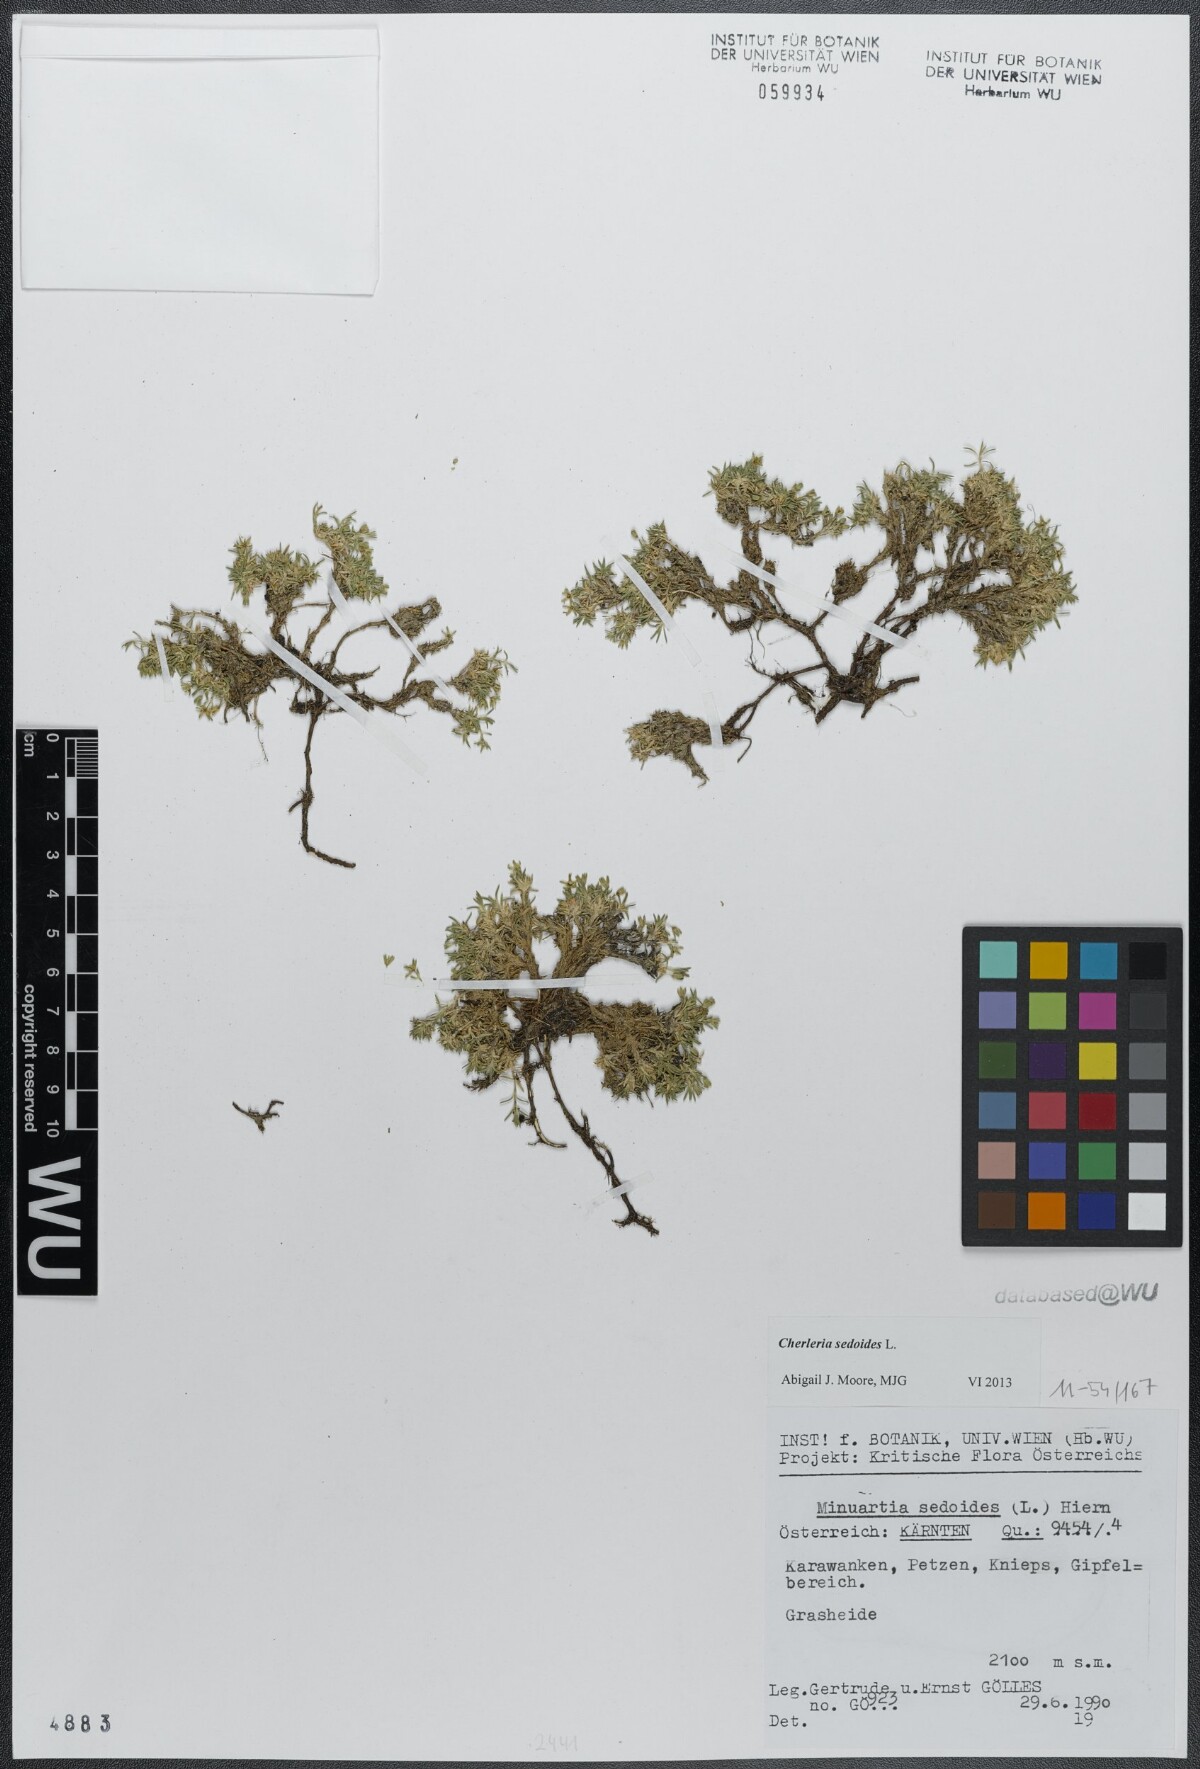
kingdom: Plantae
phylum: Tracheophyta
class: Magnoliopsida
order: Caryophyllales
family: Caryophyllaceae
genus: Cherleria
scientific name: Cherleria sedoides
